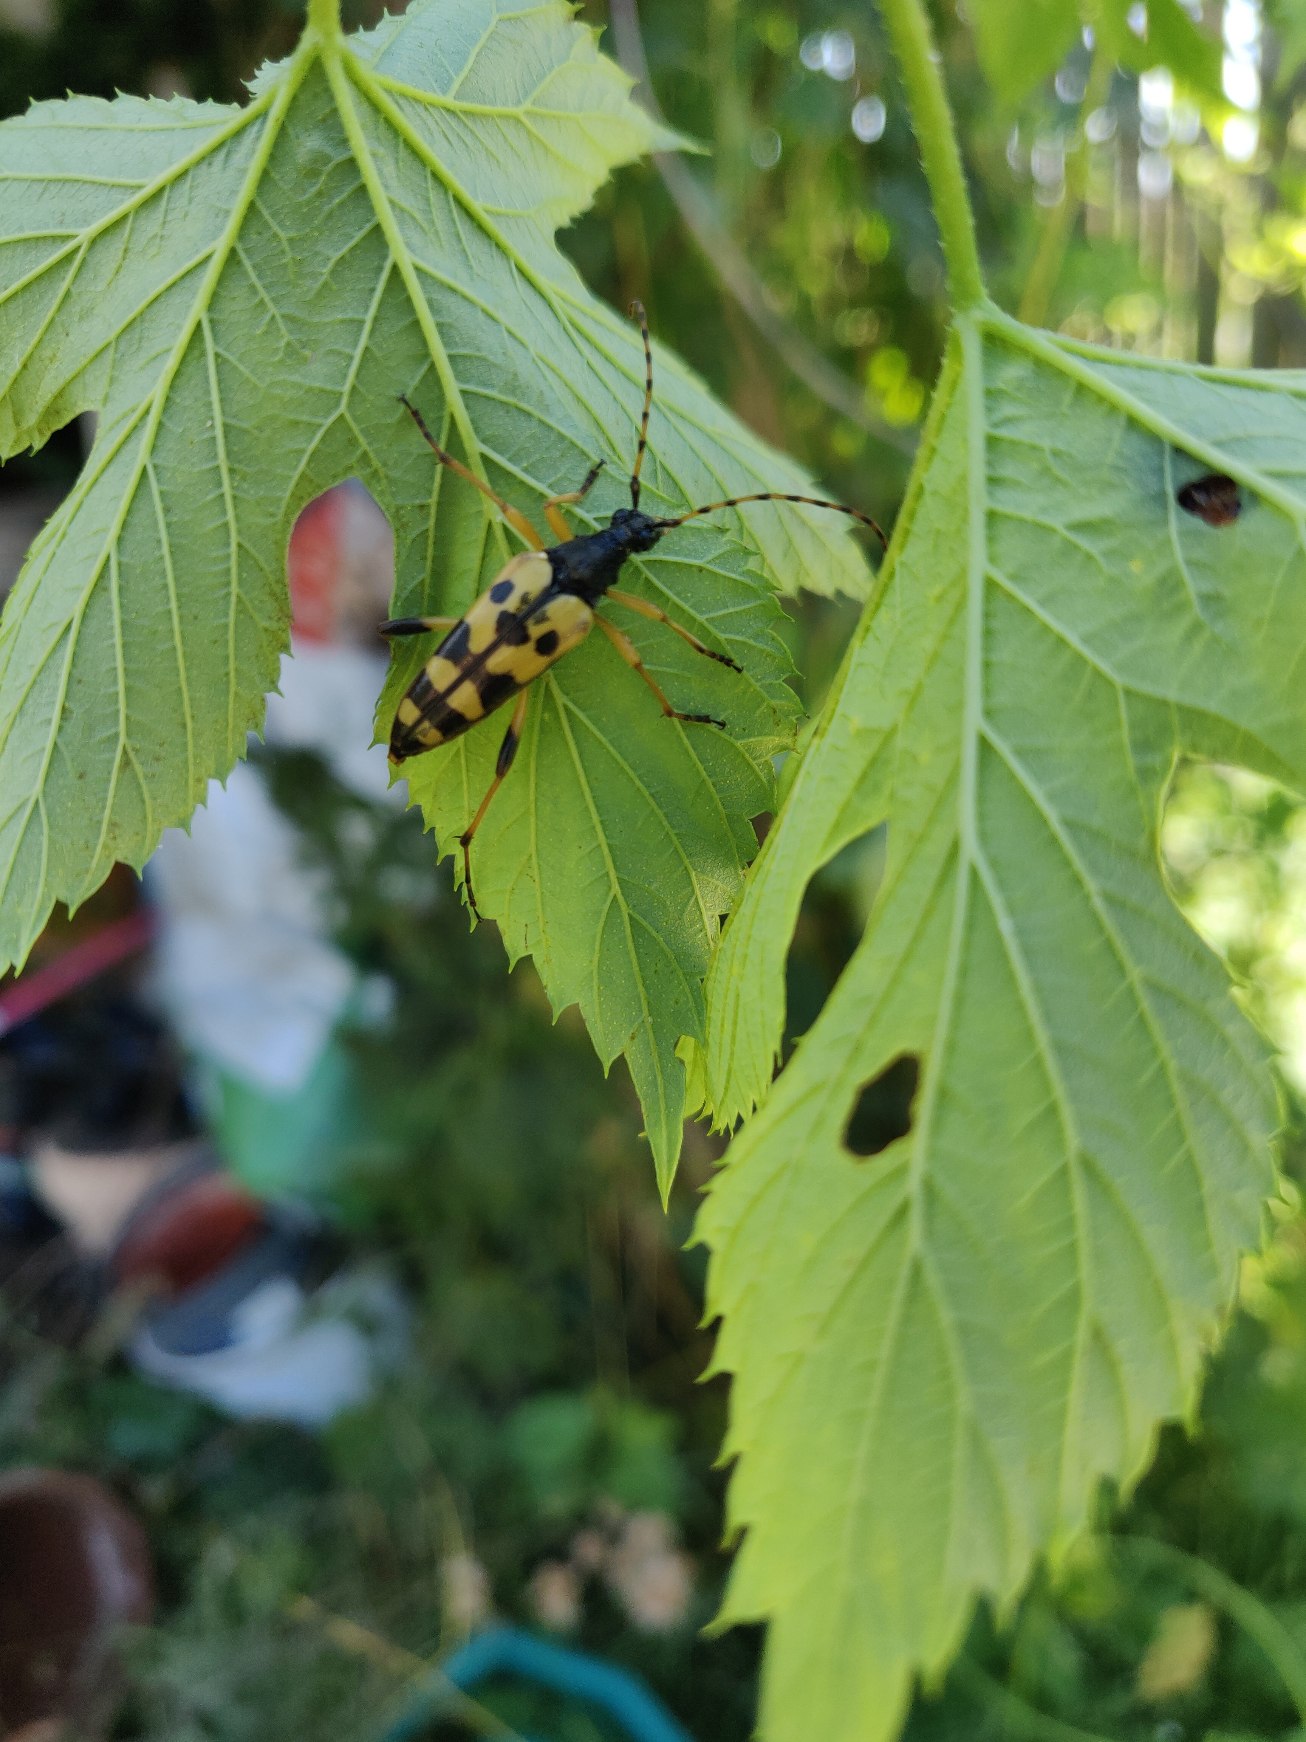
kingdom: Animalia
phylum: Arthropoda
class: Insecta
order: Coleoptera
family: Cerambycidae
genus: Rutpela
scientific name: Rutpela maculata
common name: Sydlig blomsterbuk
